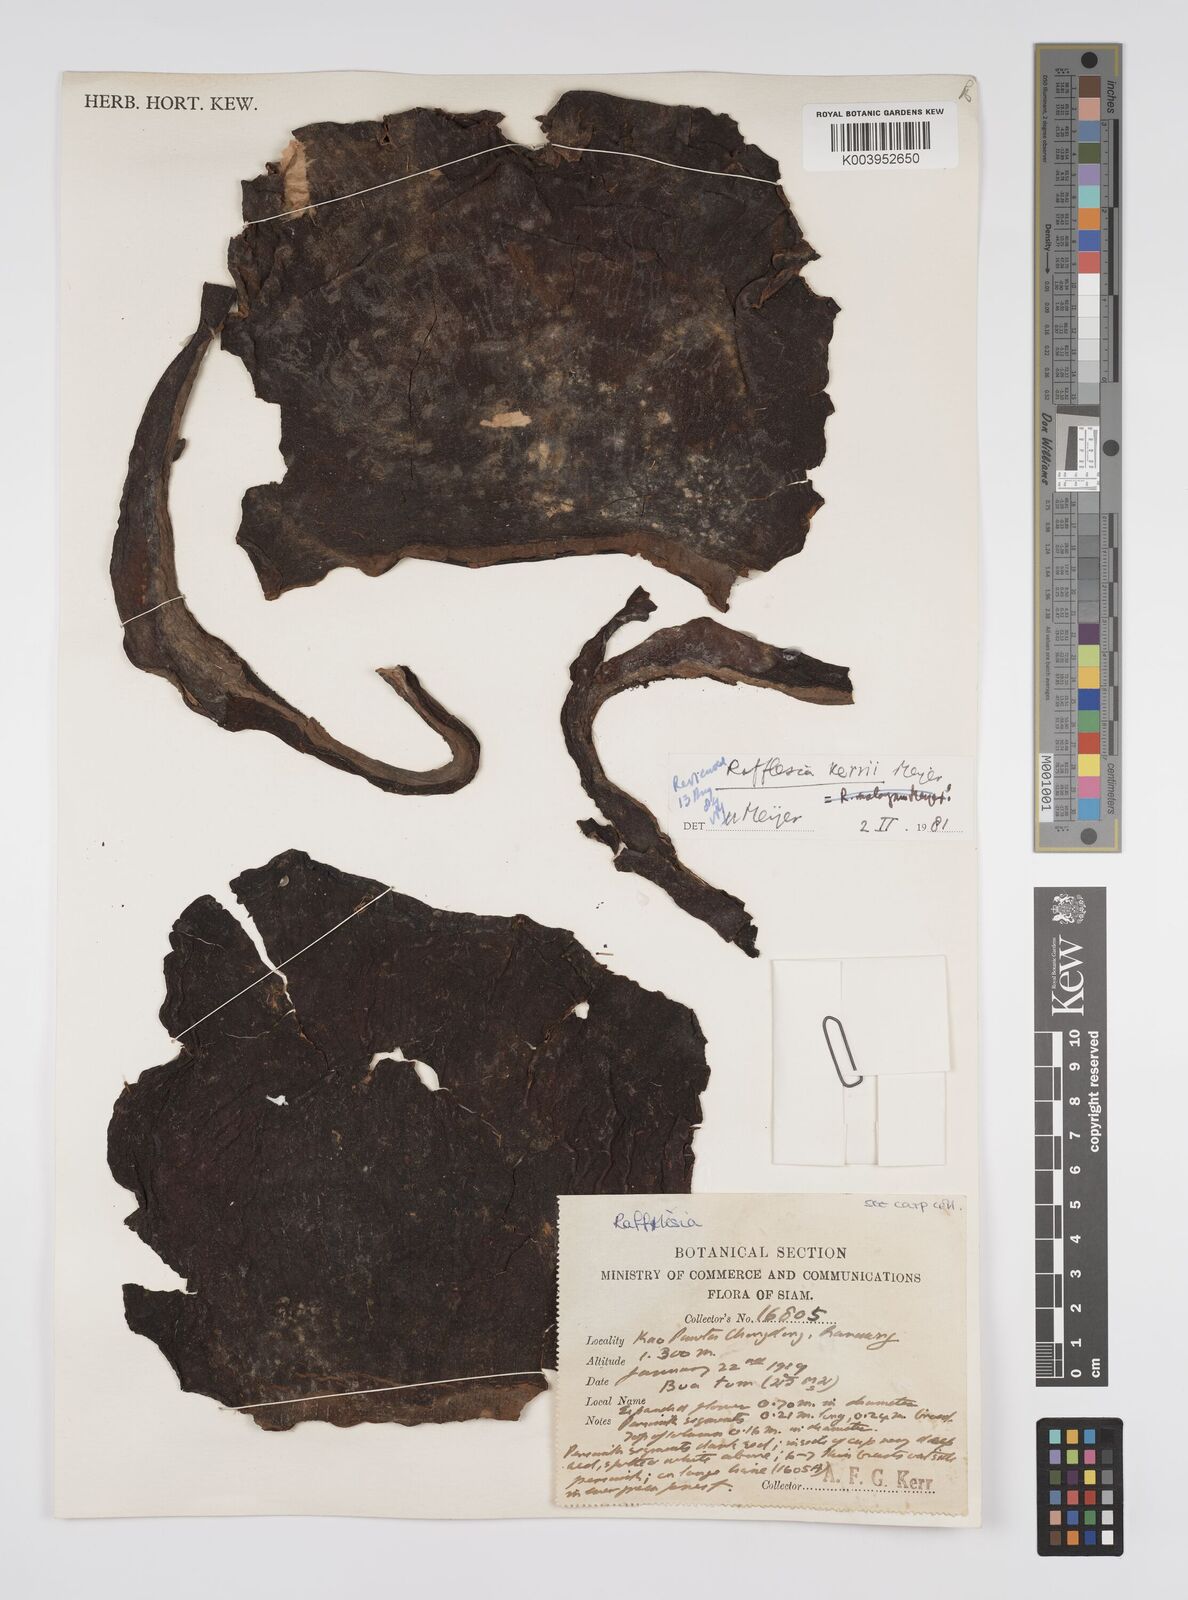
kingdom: Plantae
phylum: Tracheophyta
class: Magnoliopsida
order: Malpighiales
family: Rafflesiaceae
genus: Rafflesia
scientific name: Rafflesia kerrii
